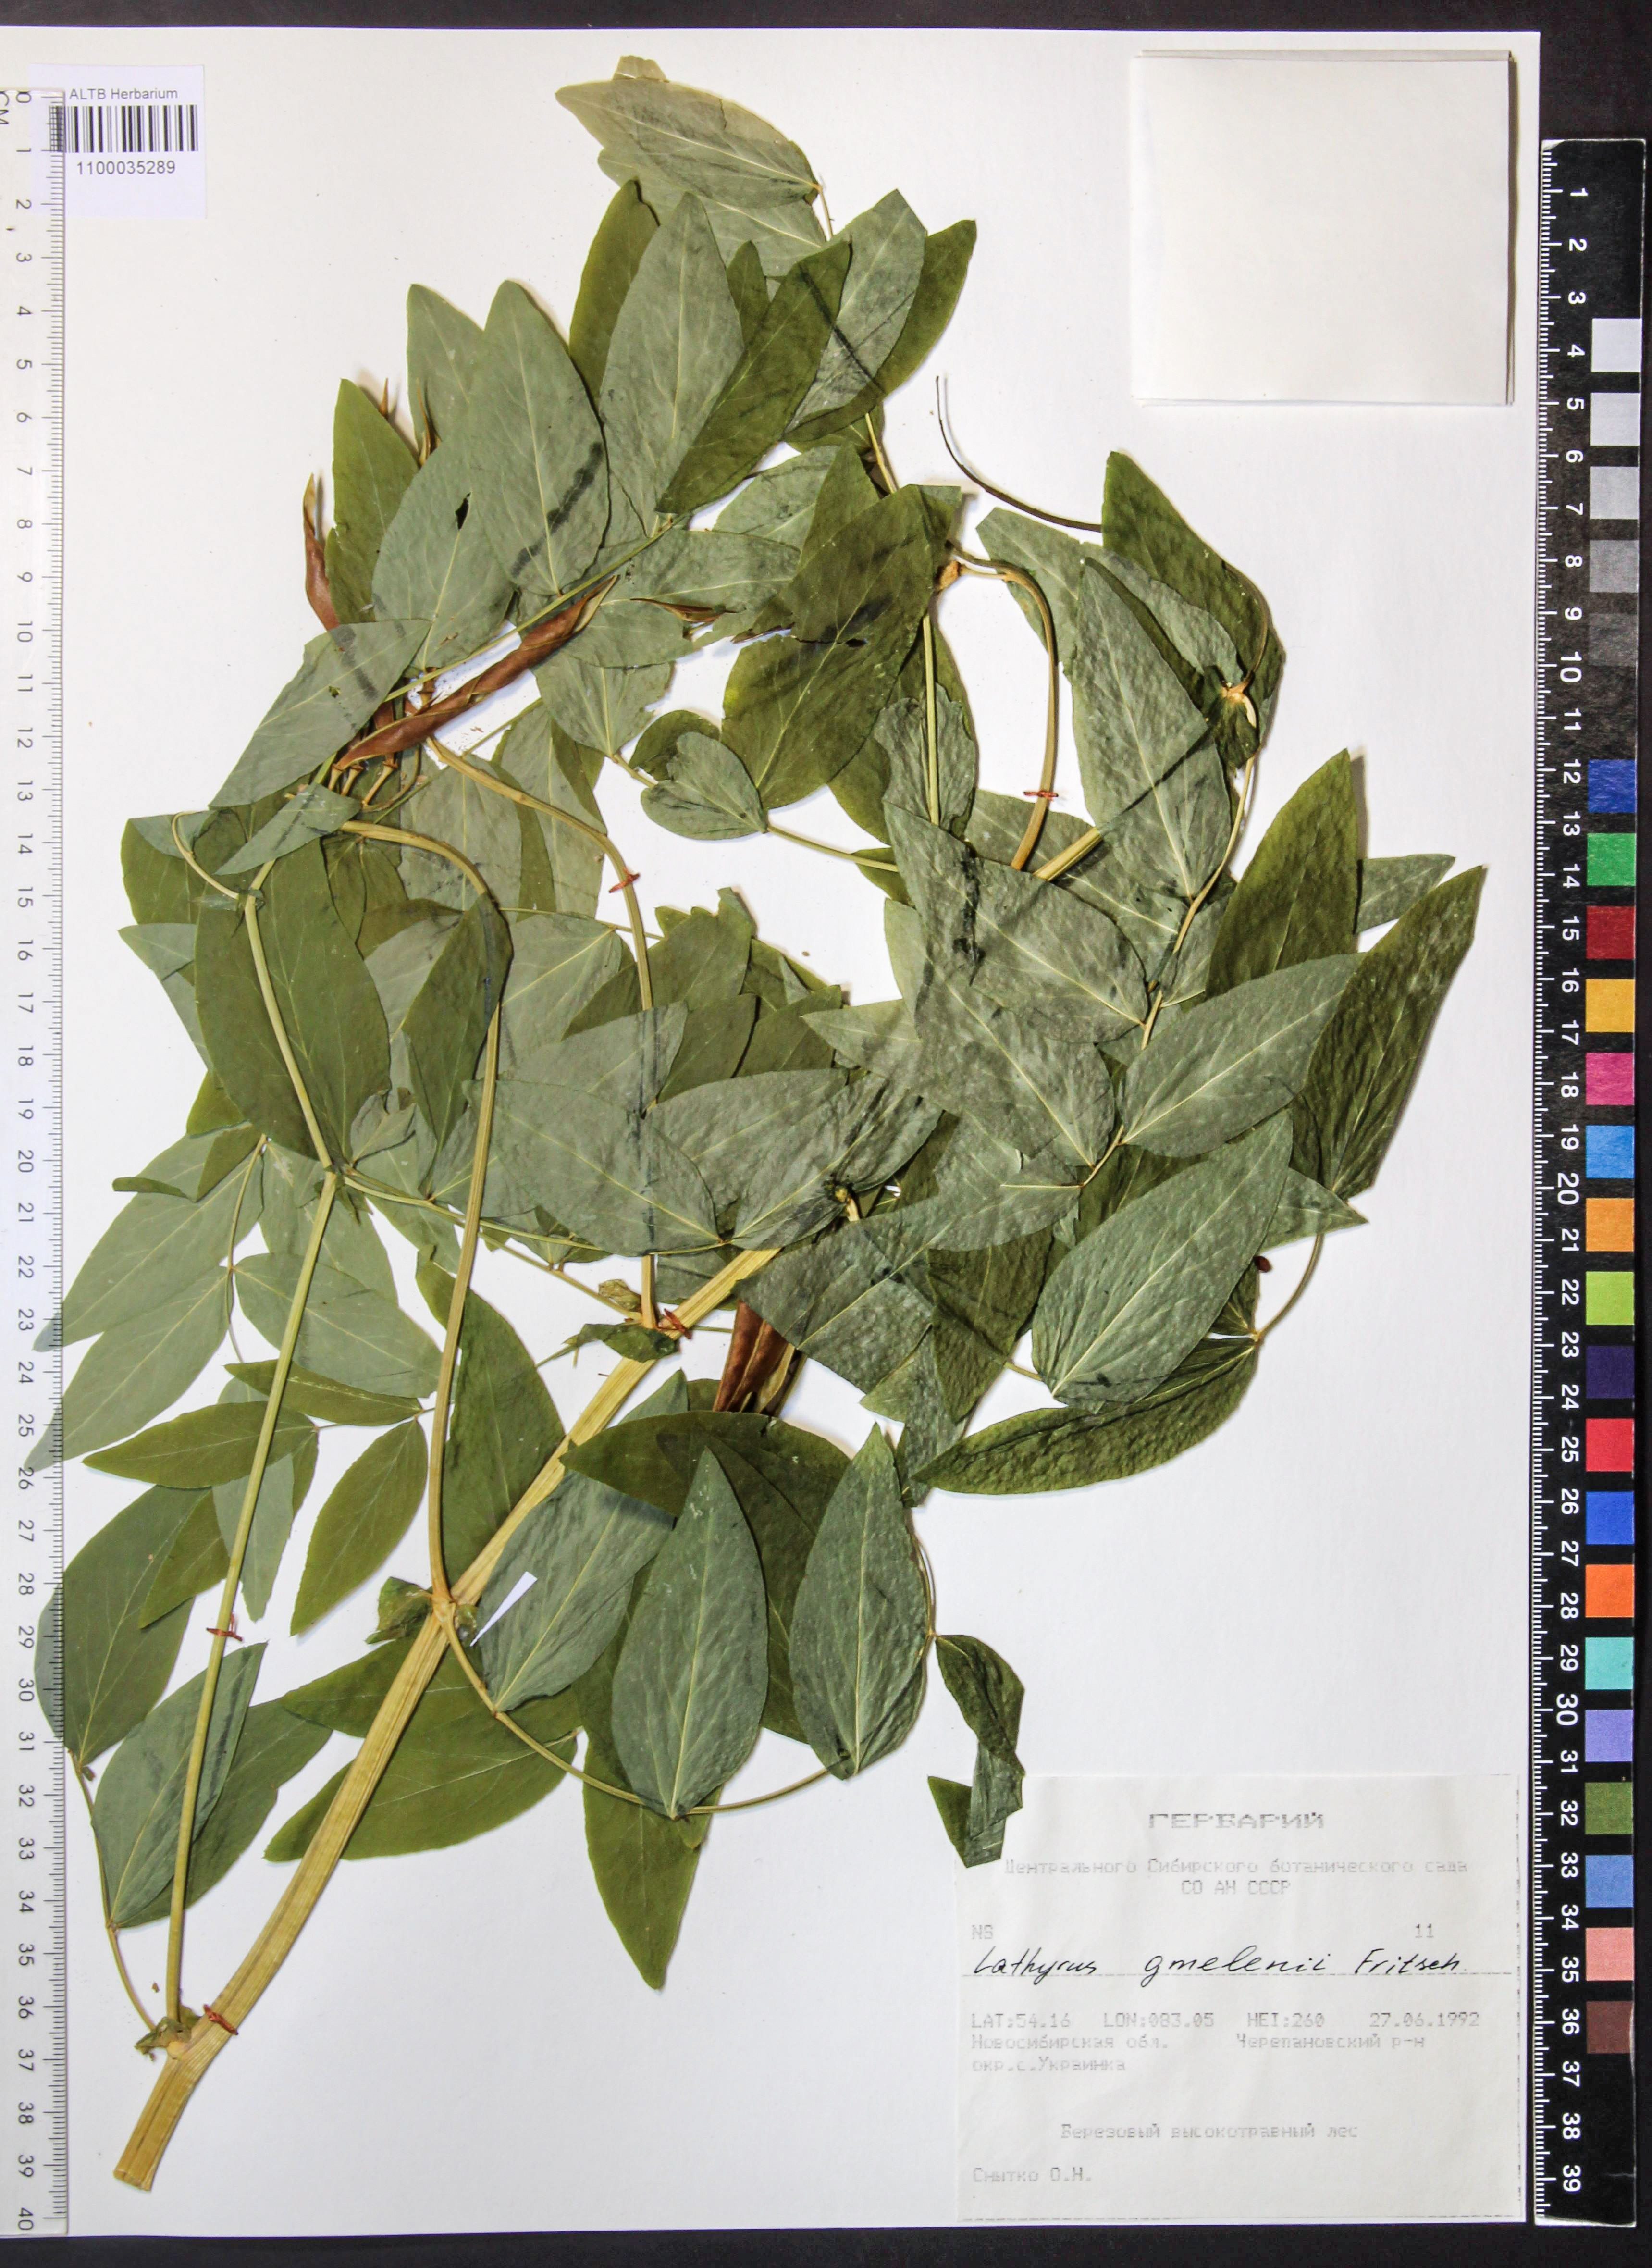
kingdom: Plantae
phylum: Tracheophyta
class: Magnoliopsida
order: Fabales
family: Fabaceae
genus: Lathyrus
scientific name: Lathyrus gmelinii
